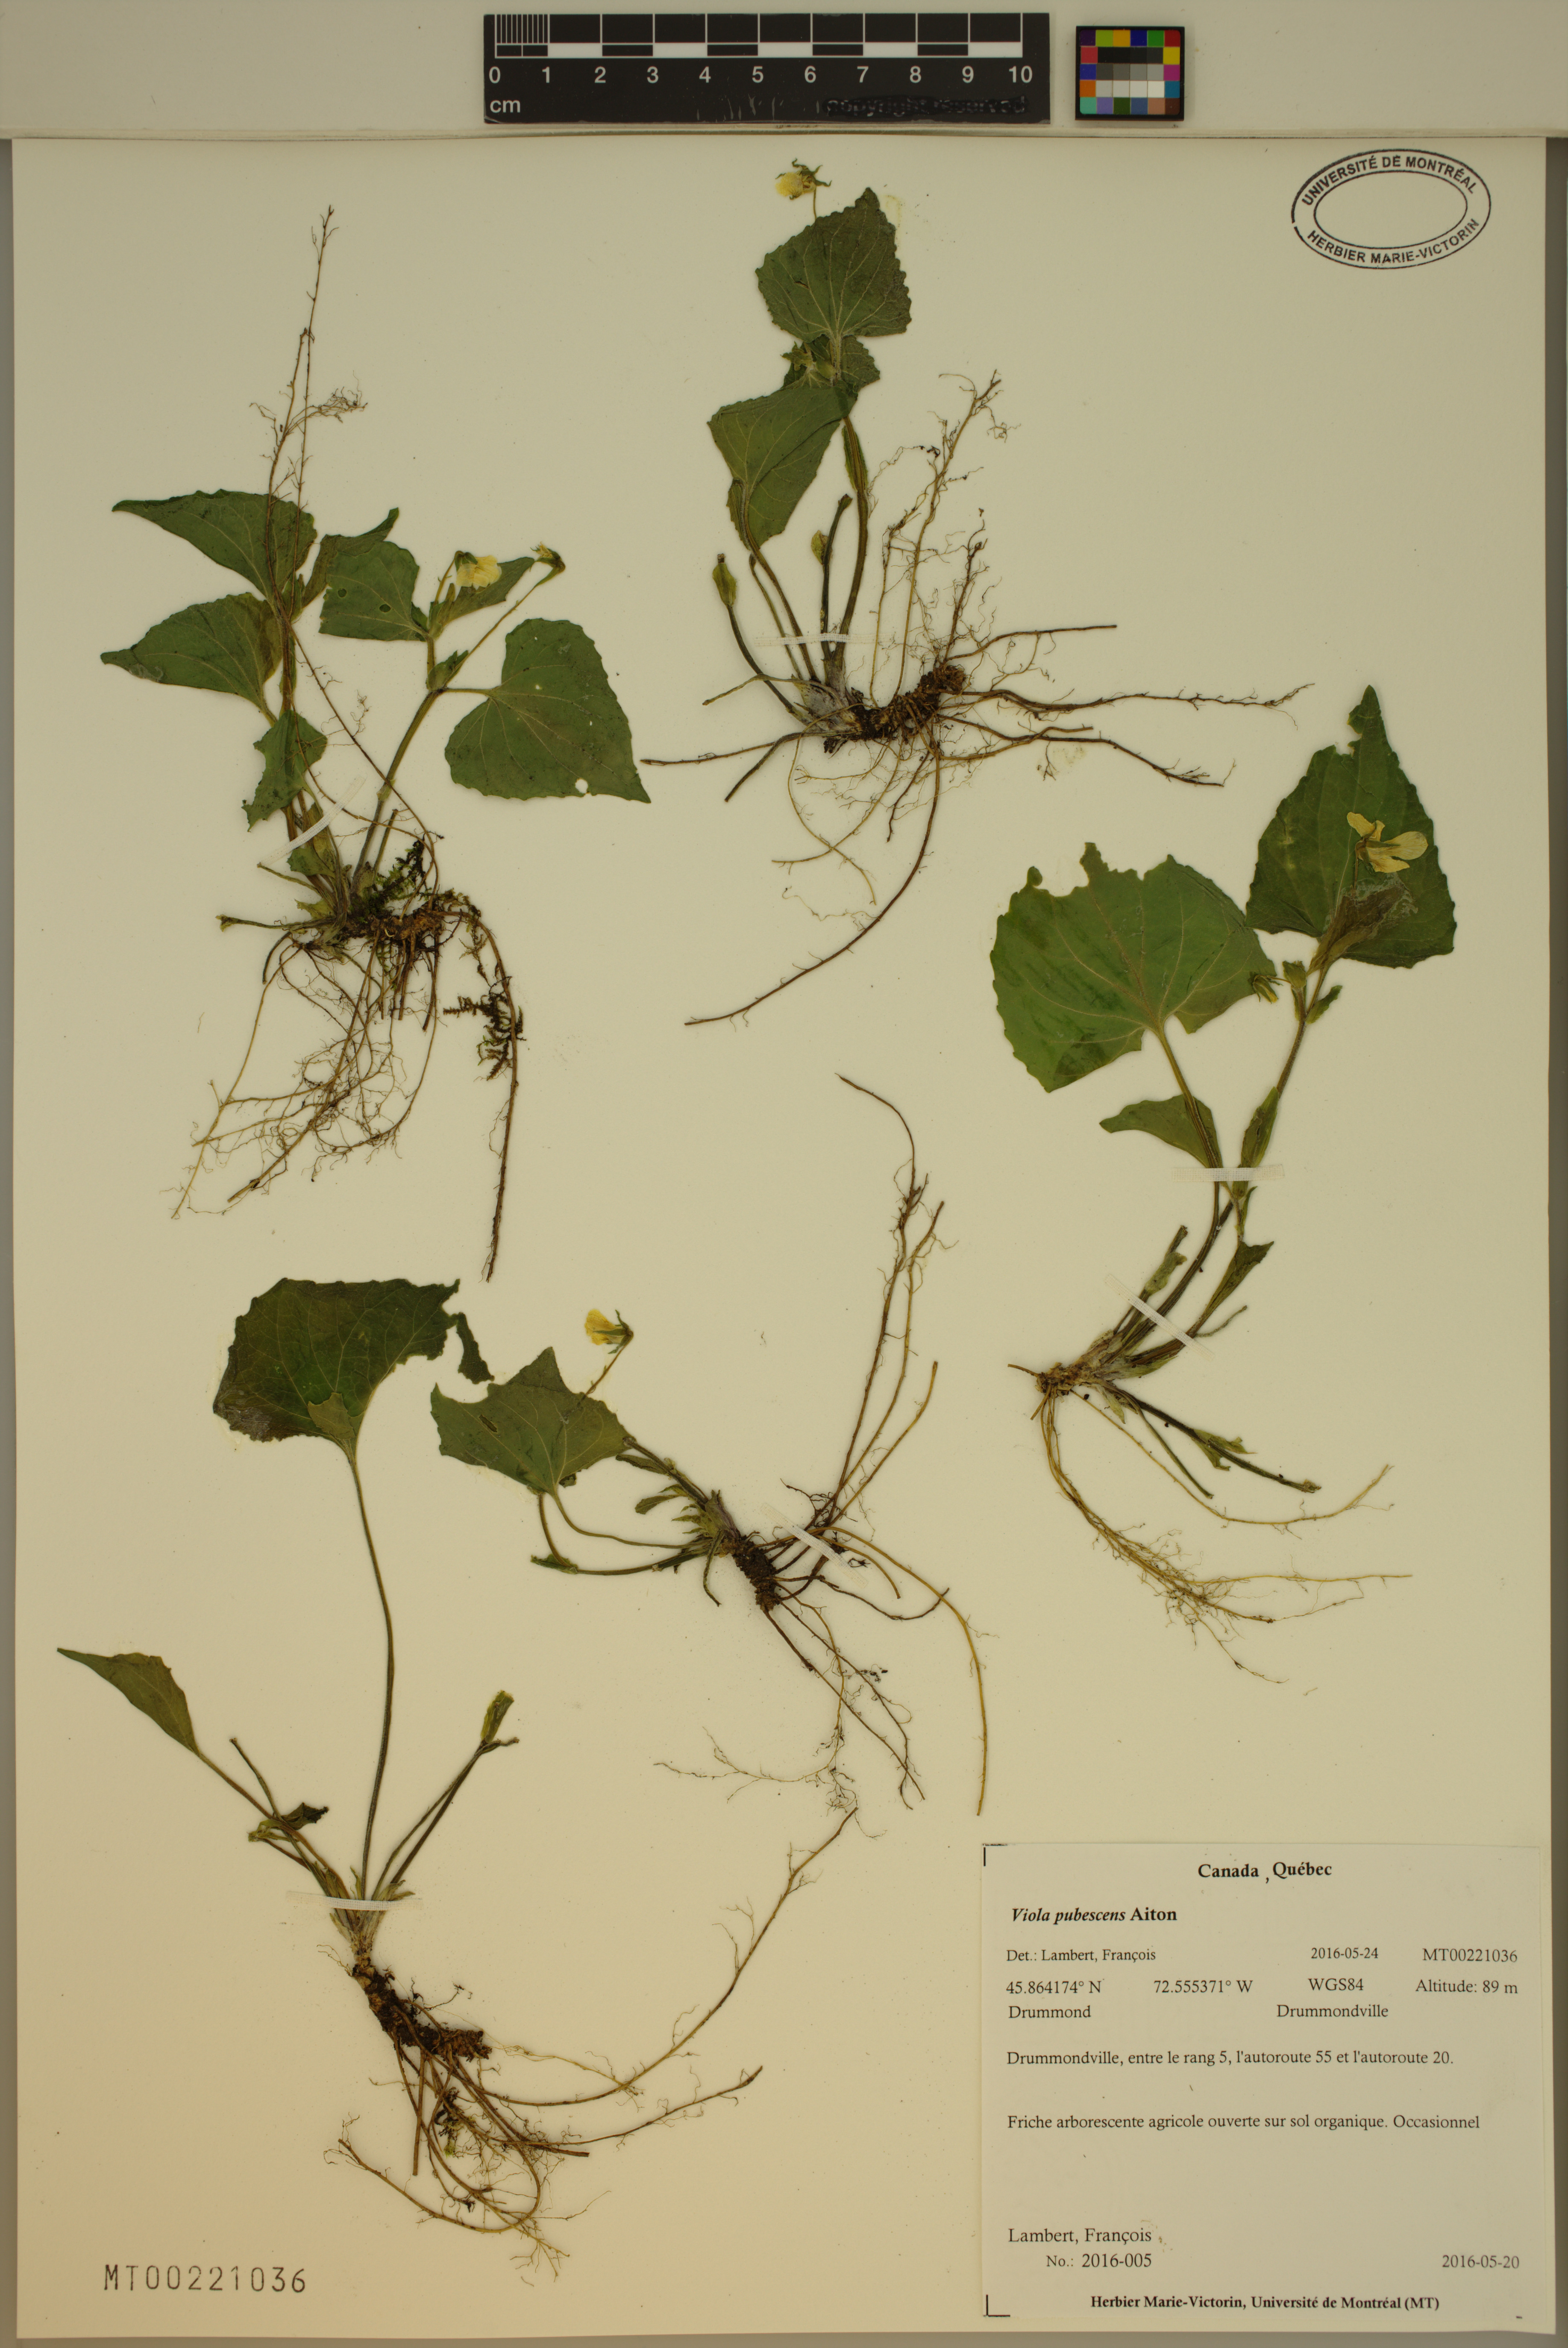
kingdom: Plantae
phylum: Tracheophyta
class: Magnoliopsida
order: Malpighiales
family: Violaceae
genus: Viola
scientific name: Viola pubescens
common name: Yellow forest violet
